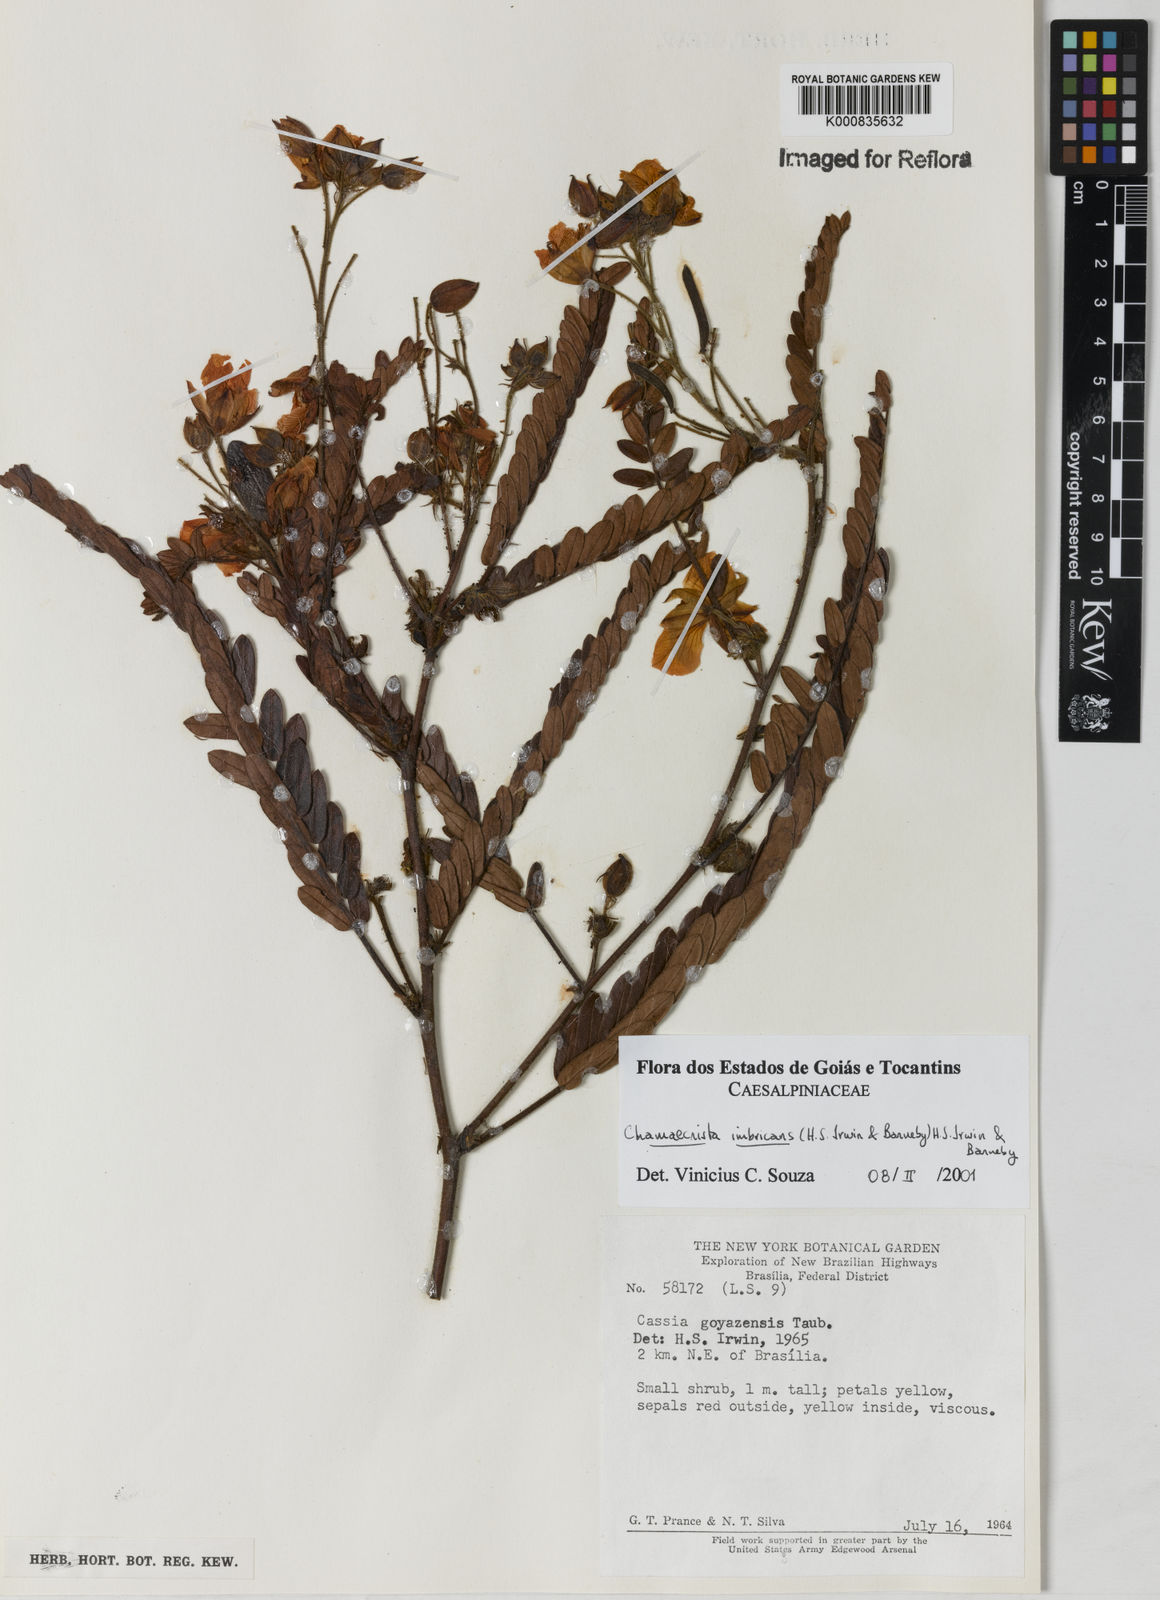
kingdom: Plantae
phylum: Tracheophyta
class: Magnoliopsida
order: Fabales
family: Fabaceae
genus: Chamaecrista
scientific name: Chamaecrista imbricans
